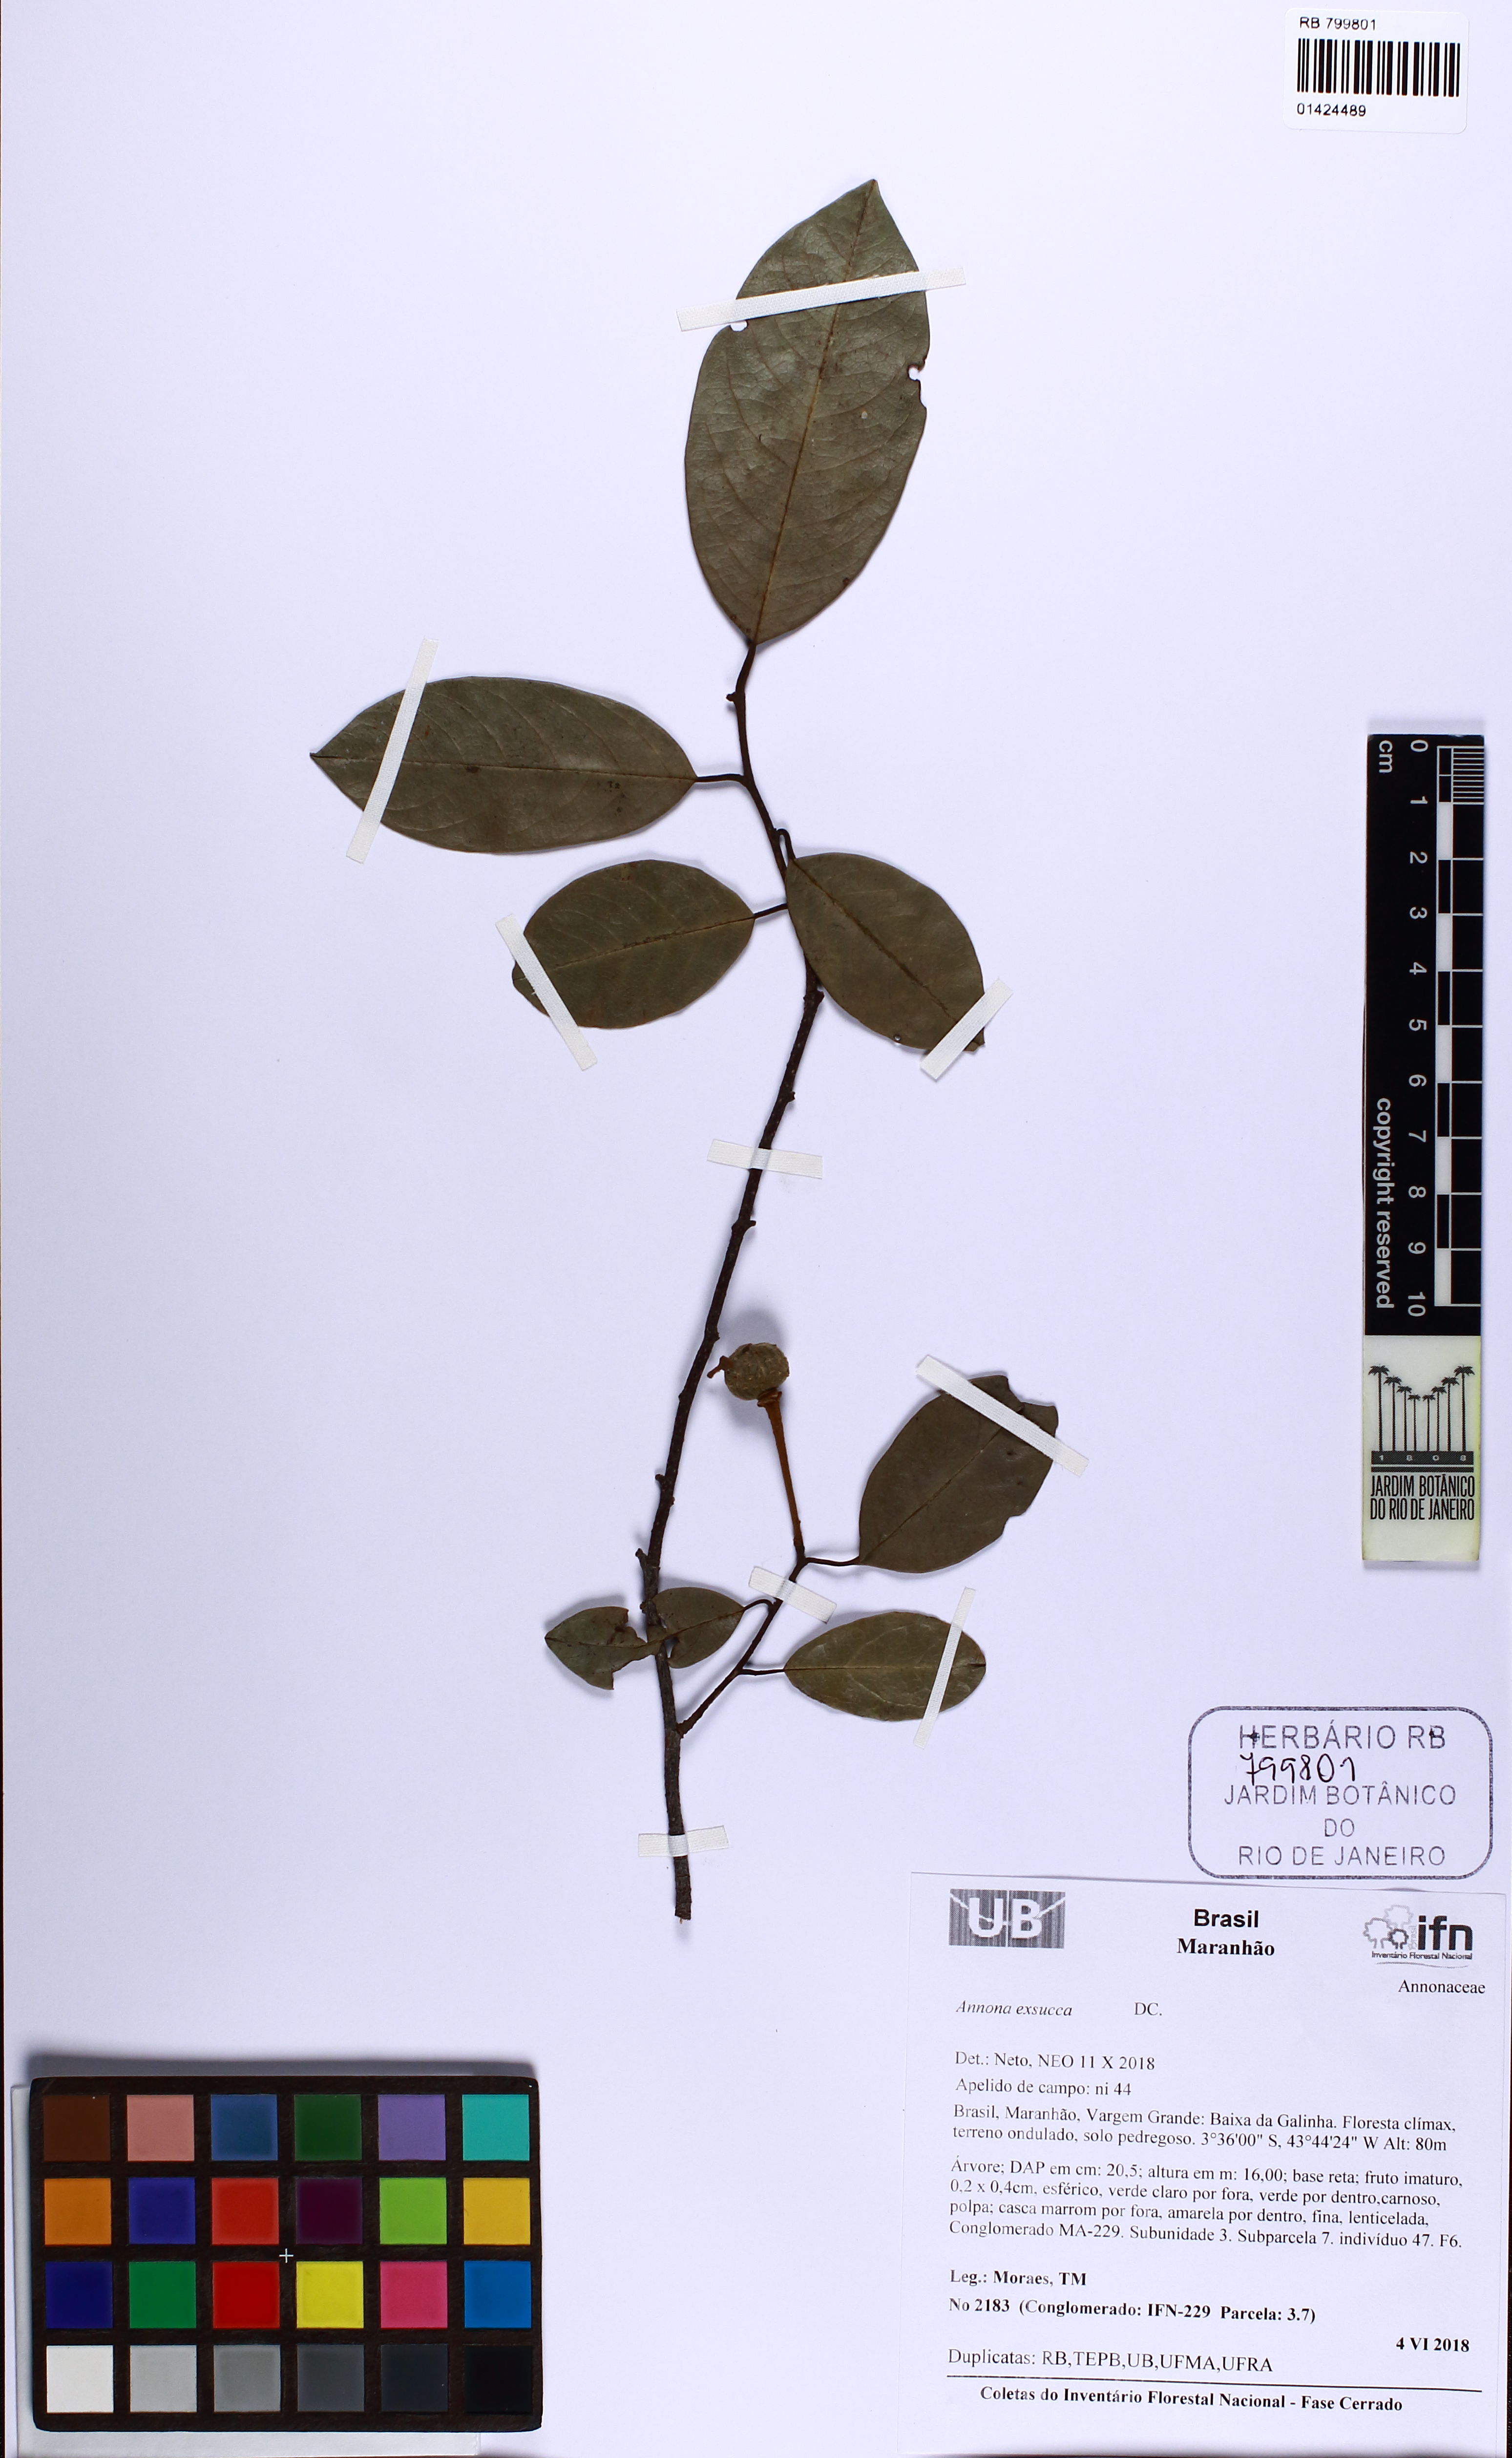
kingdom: Plantae
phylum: Tracheophyta
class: Magnoliopsida
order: Magnoliales
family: Annonaceae
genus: Annona
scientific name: Annona exsucca
